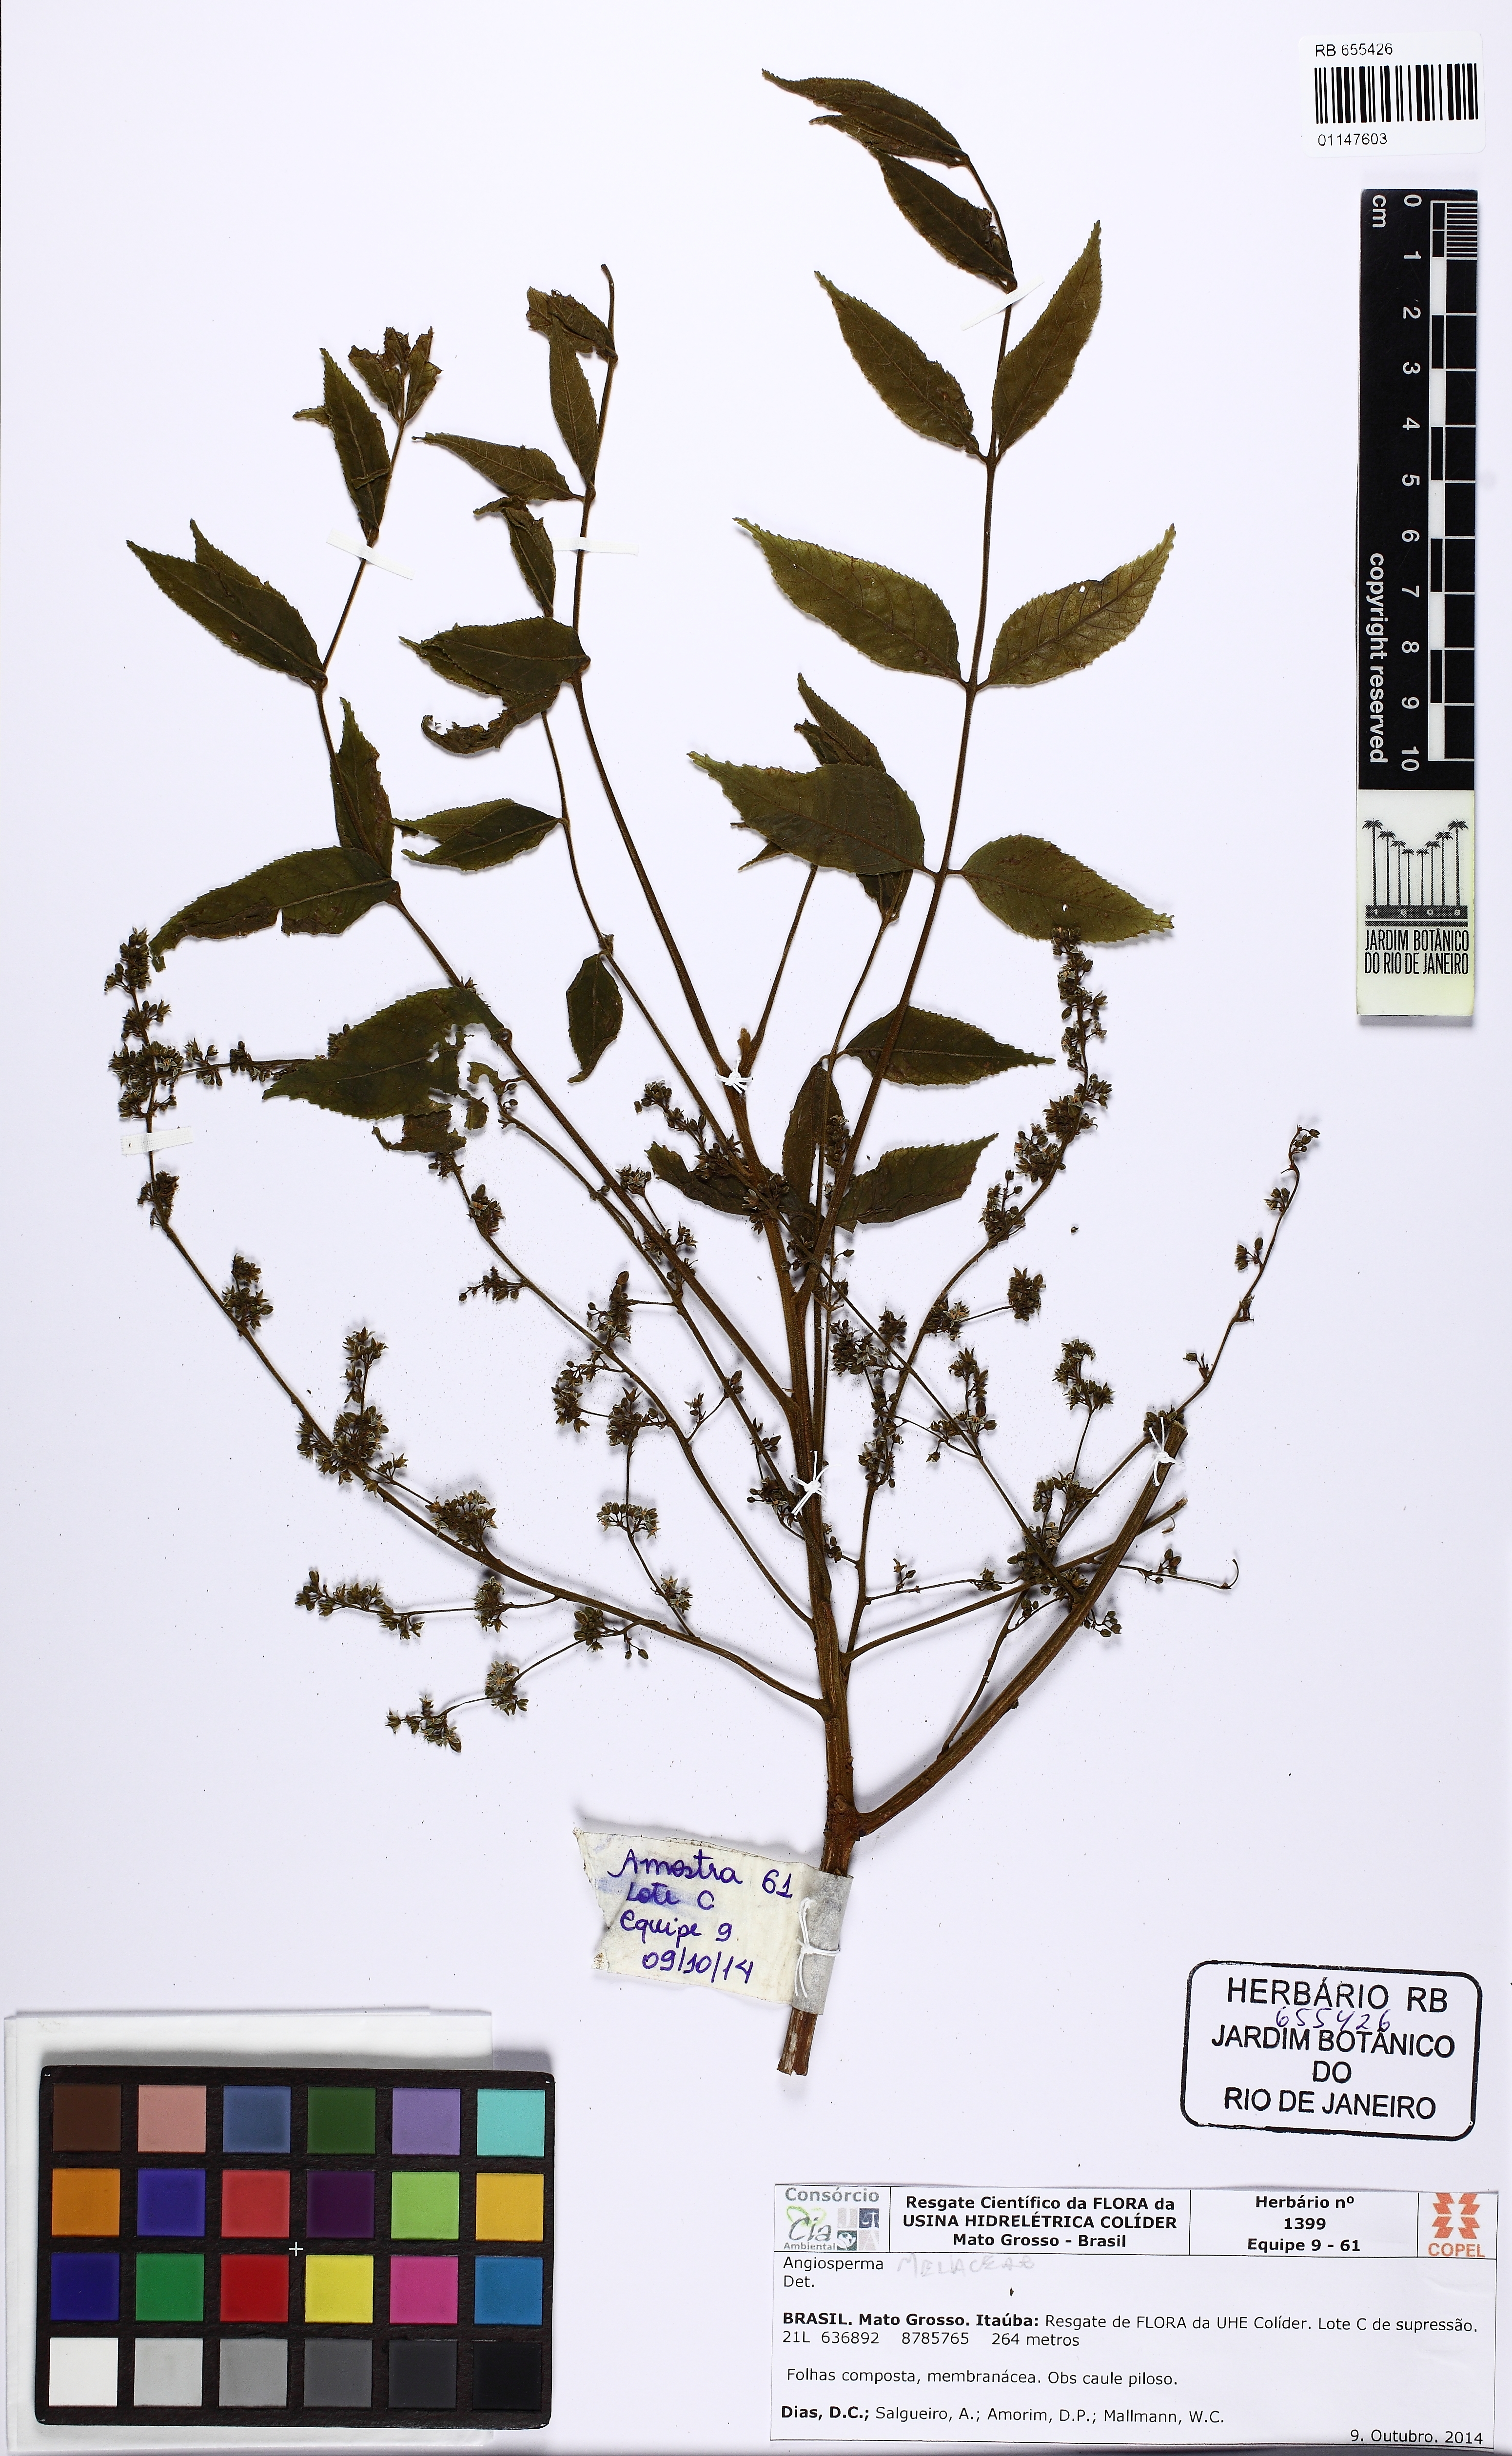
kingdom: Plantae
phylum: Tracheophyta
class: Magnoliopsida
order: Sapindales
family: Meliaceae
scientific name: Meliaceae
